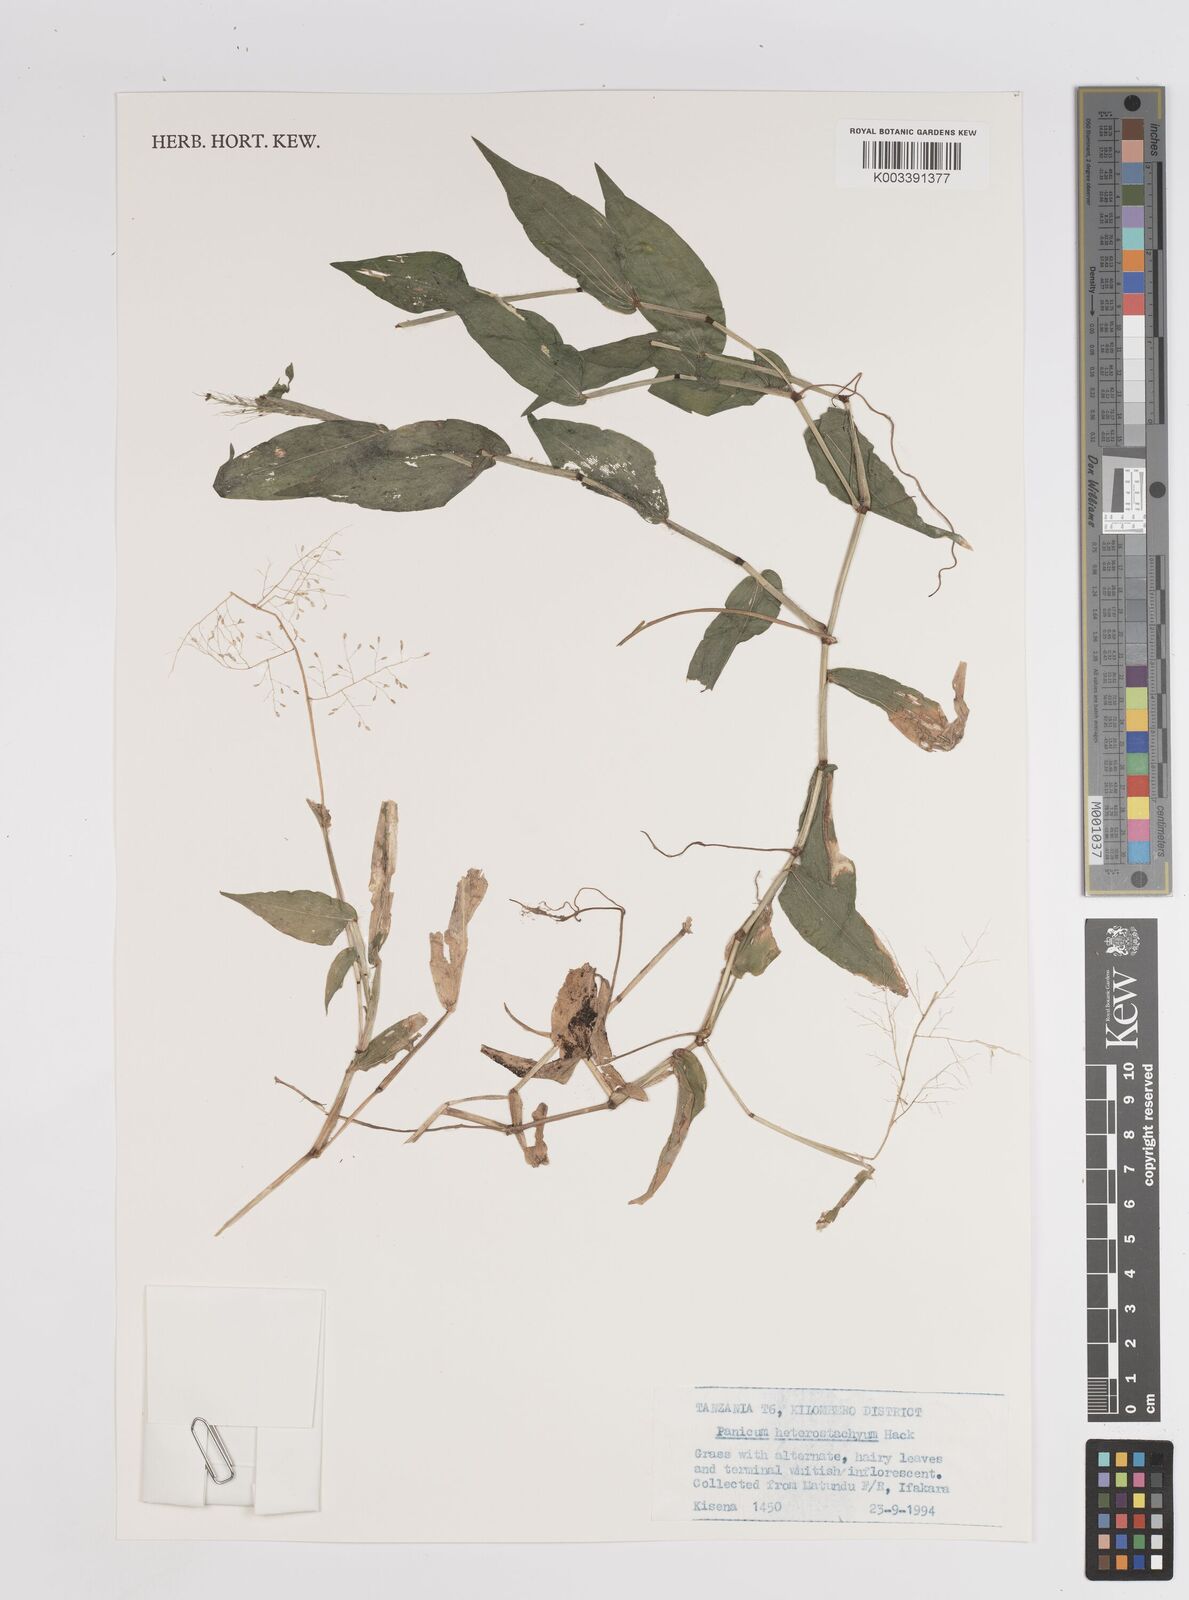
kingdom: Plantae
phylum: Tracheophyta
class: Liliopsida
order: Poales
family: Poaceae
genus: Panicum
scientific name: Panicum hirtum
